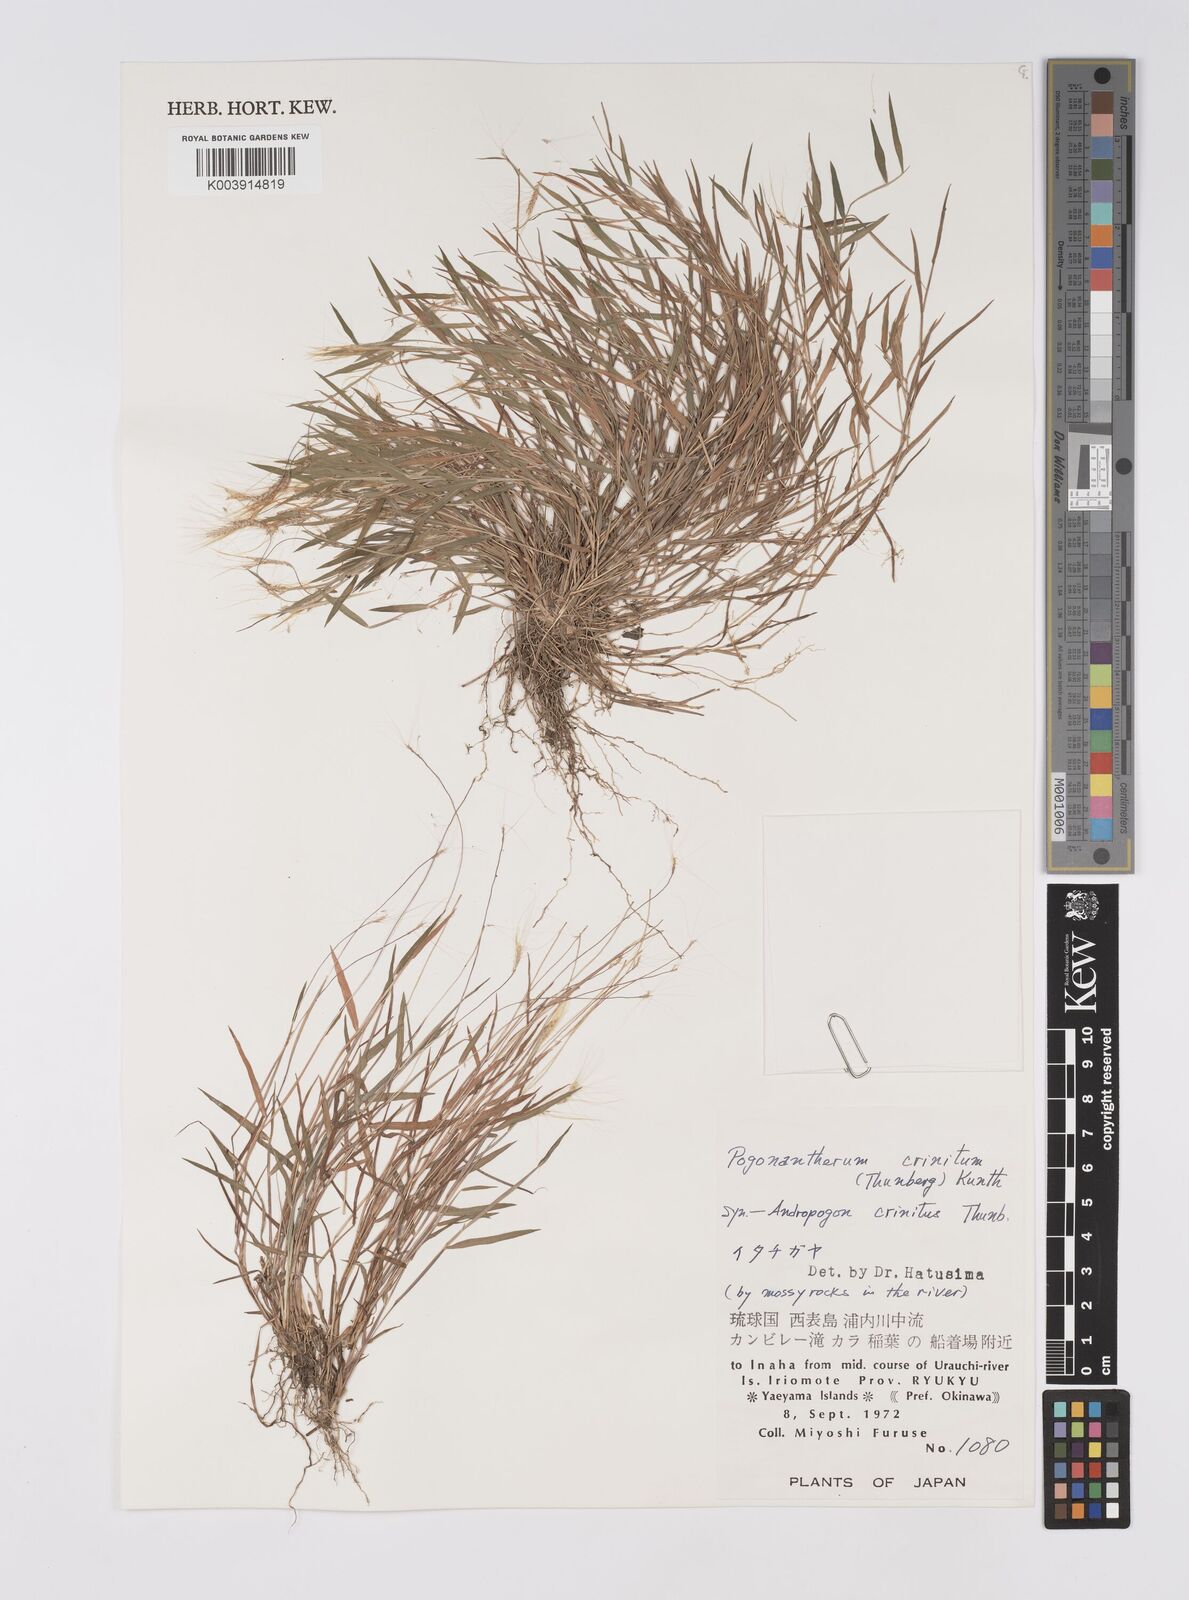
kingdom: Plantae
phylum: Tracheophyta
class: Liliopsida
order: Poales
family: Poaceae
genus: Pogonatherum
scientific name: Pogonatherum crinitum
